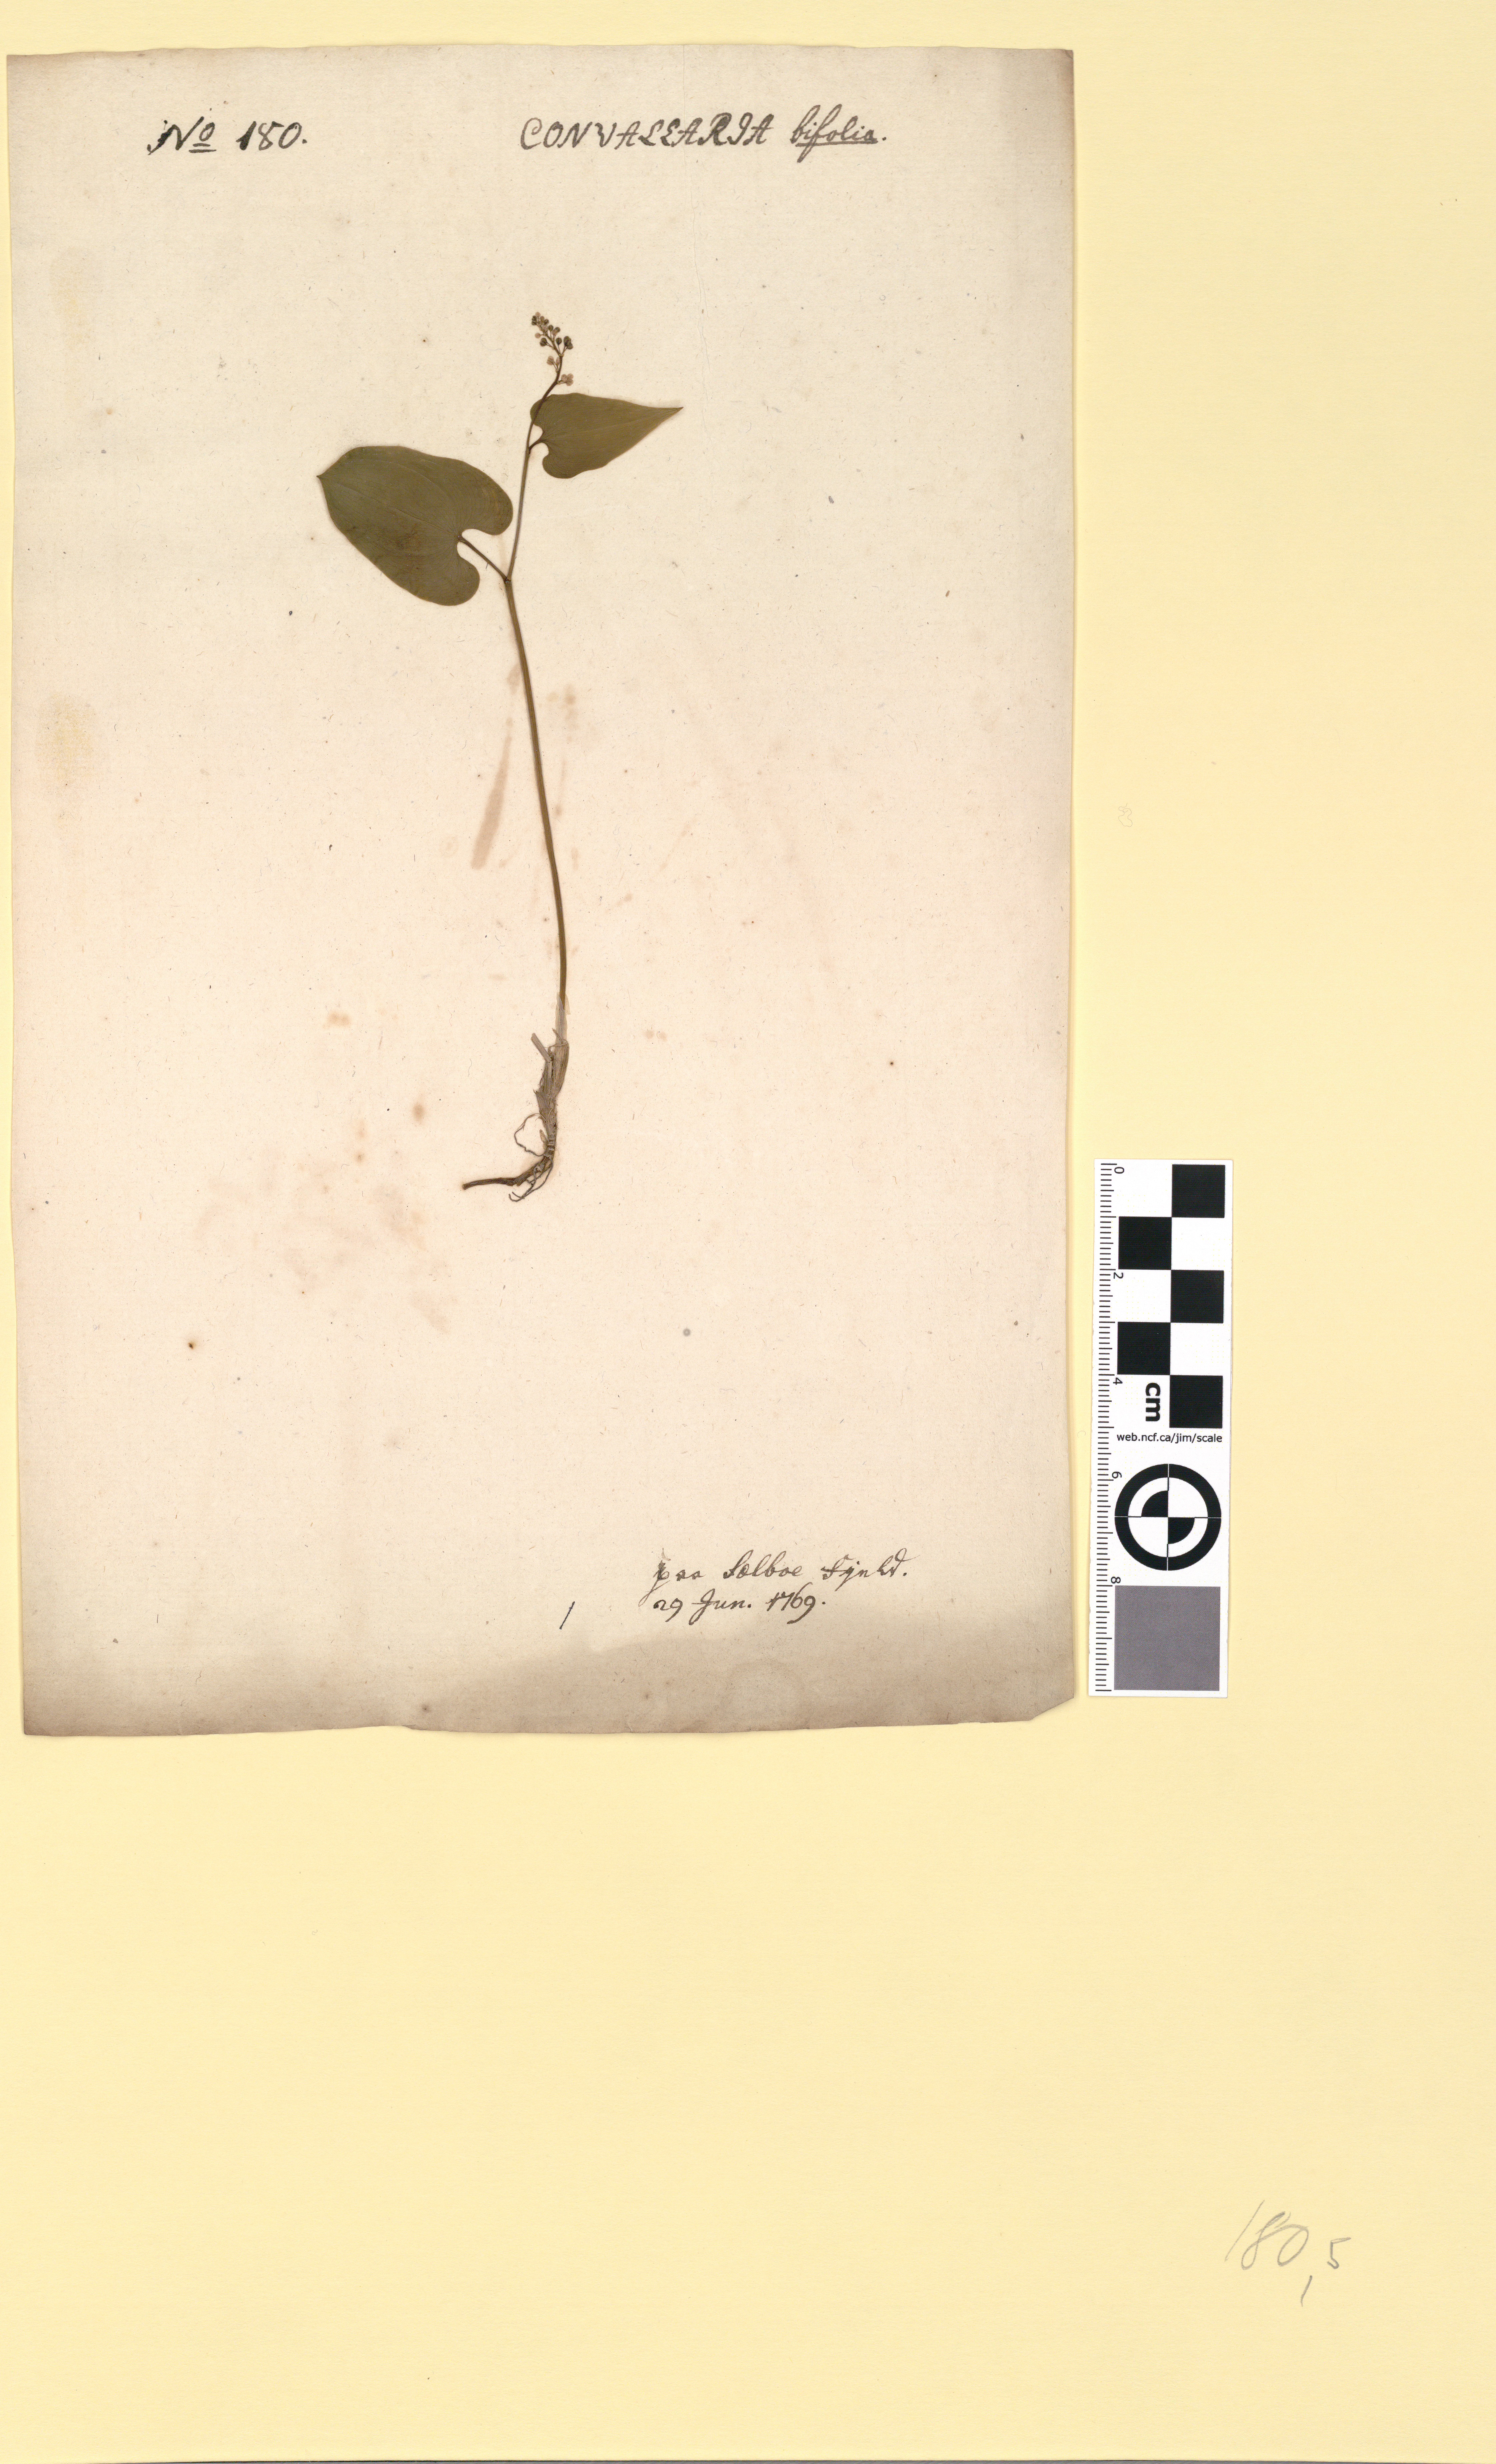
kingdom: Plantae
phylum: Tracheophyta
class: Liliopsida
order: Asparagales
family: Asparagaceae
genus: Maianthemum
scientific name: Maianthemum bifolium
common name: May lily
